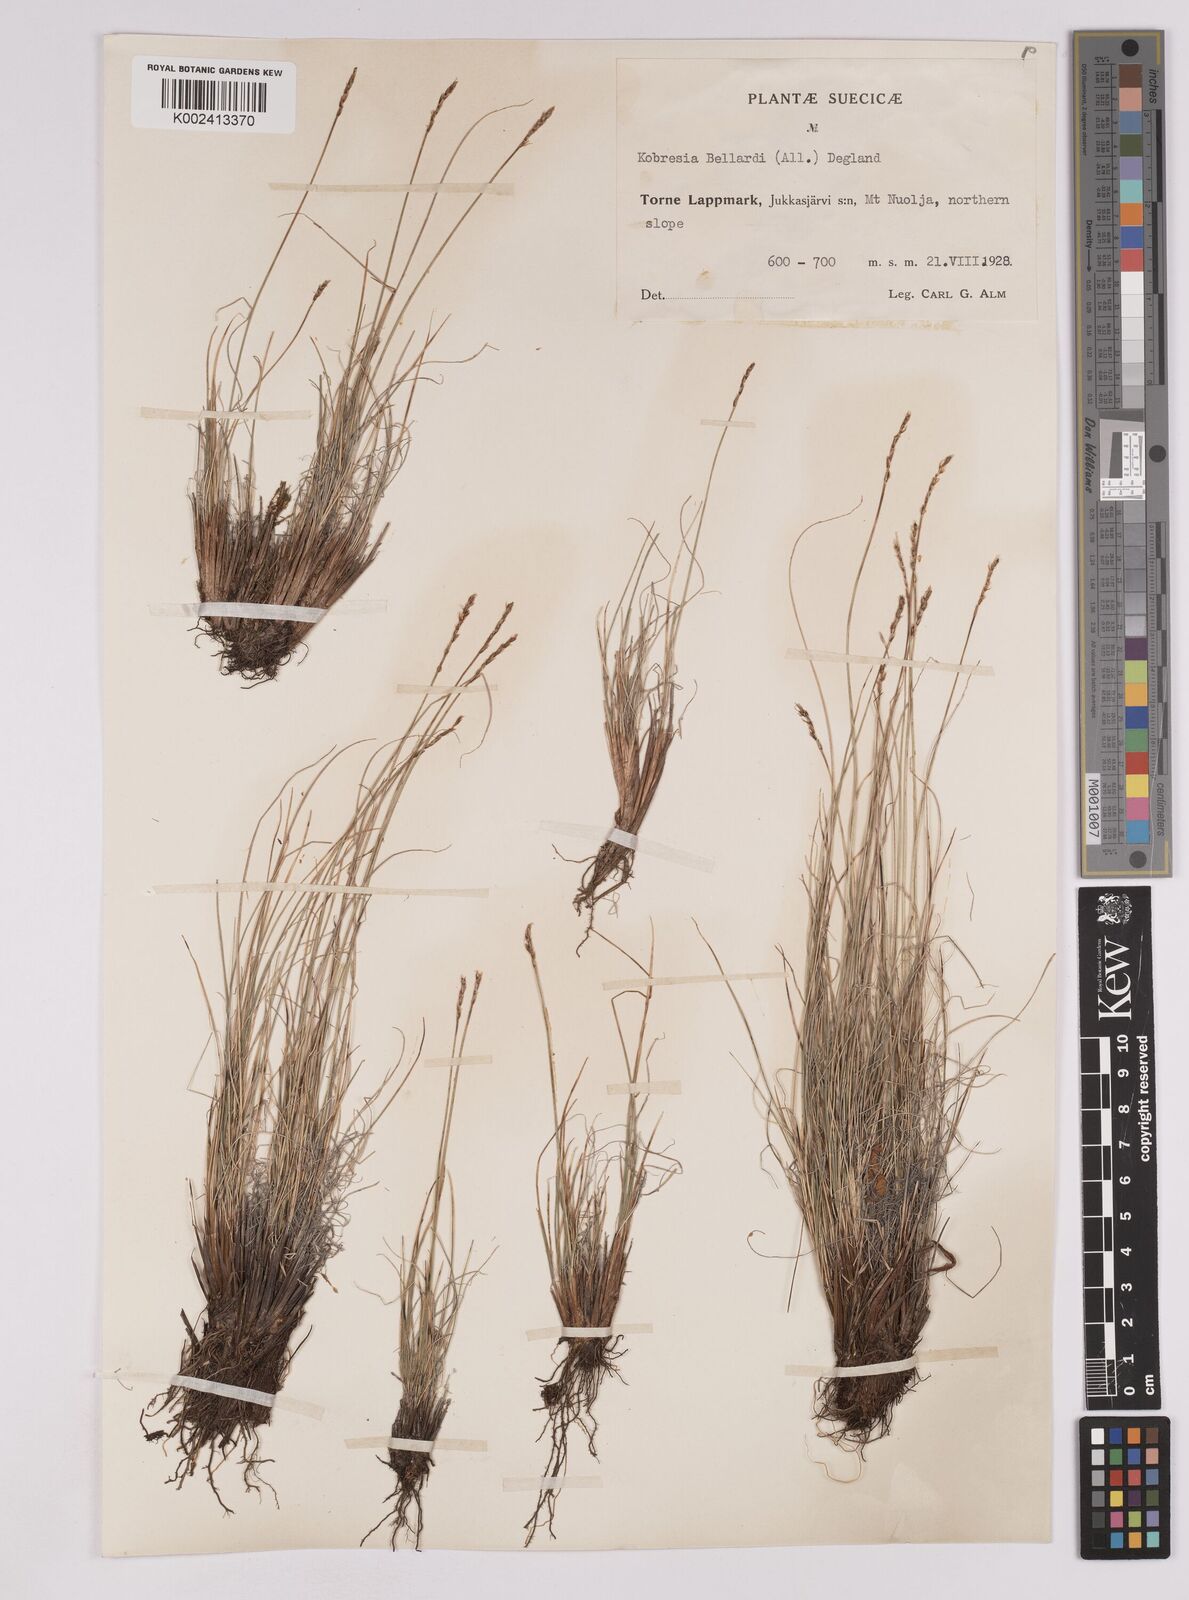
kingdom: Plantae
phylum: Tracheophyta
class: Liliopsida
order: Poales
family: Cyperaceae
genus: Carex
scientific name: Carex myosuroides
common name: Bellard's bog sedge
